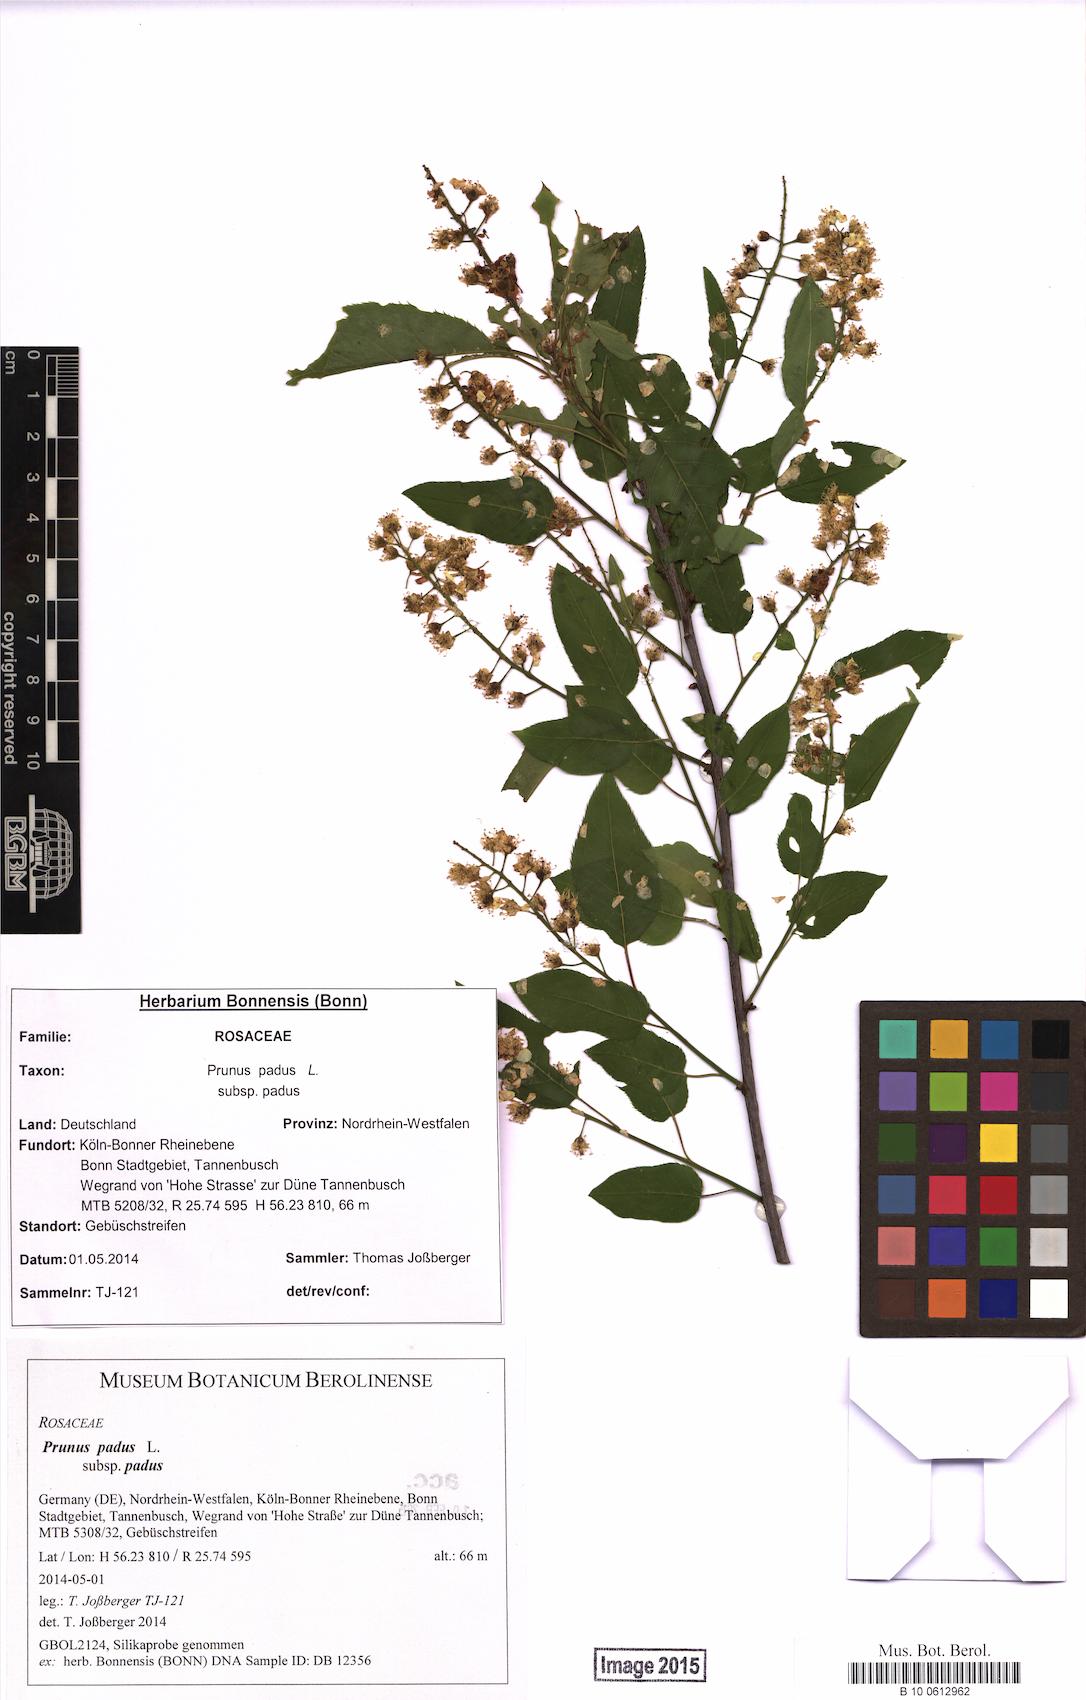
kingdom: Plantae
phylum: Tracheophyta
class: Magnoliopsida
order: Rosales
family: Rosaceae
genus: Prunus
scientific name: Prunus padus
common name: Bird cherry
